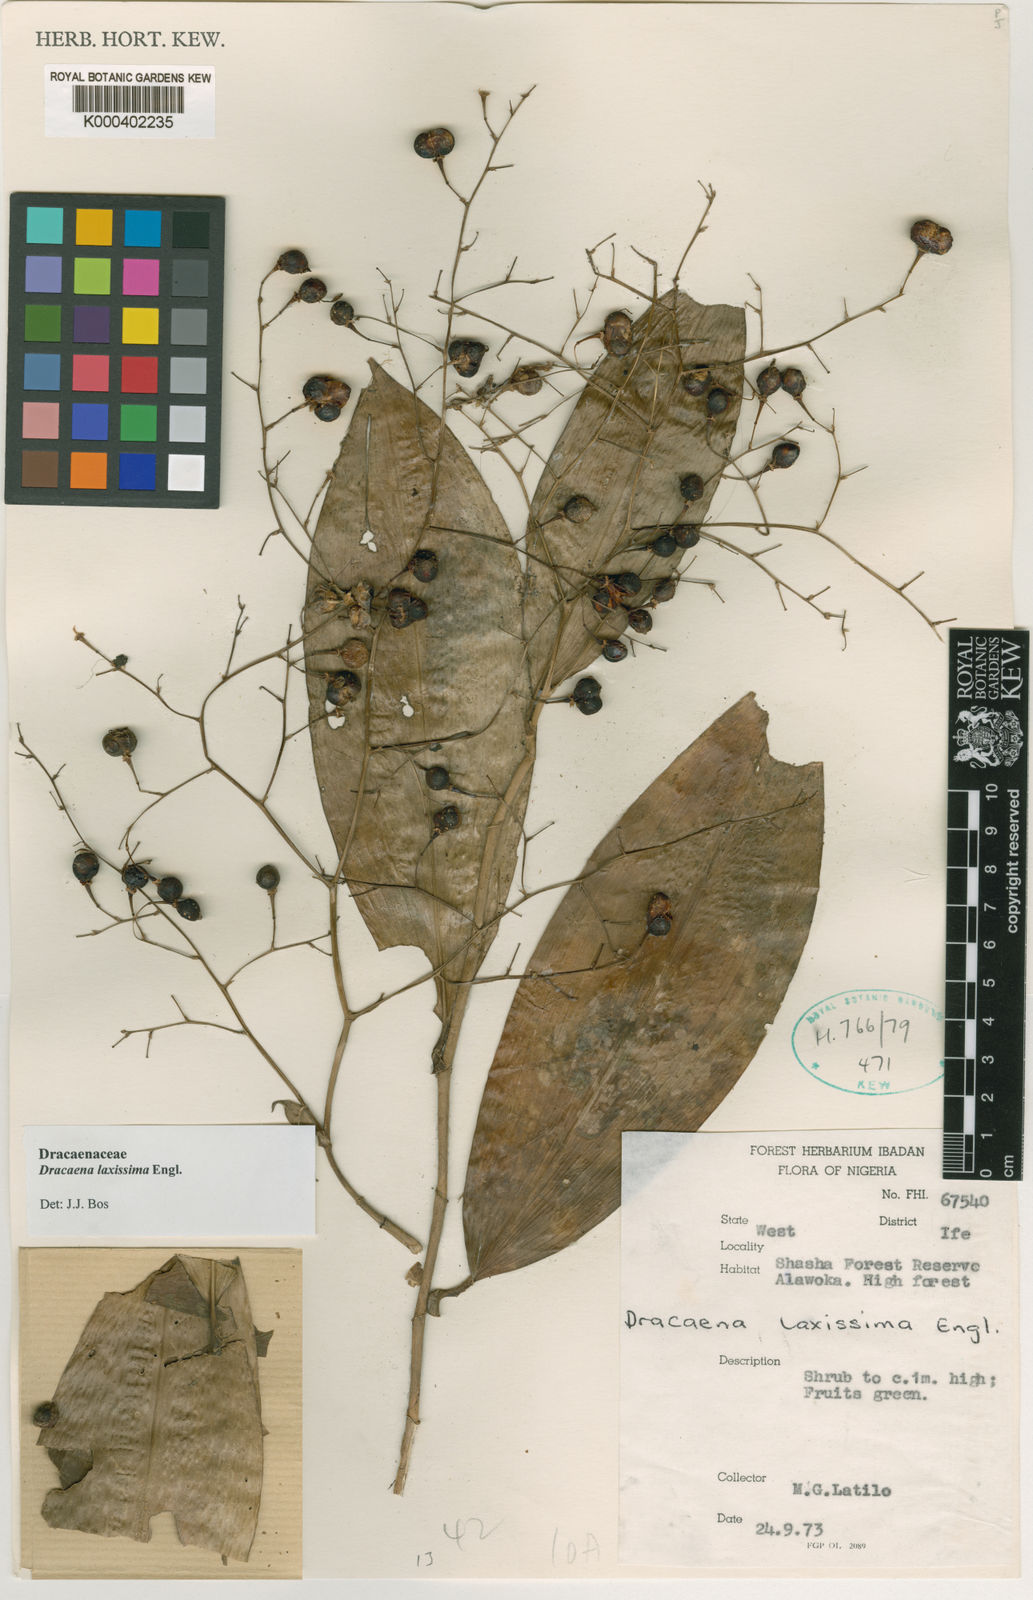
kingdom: Plantae
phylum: Tracheophyta
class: Liliopsida
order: Asparagales
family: Asparagaceae
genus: Dracaena
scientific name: Dracaena laxissima
